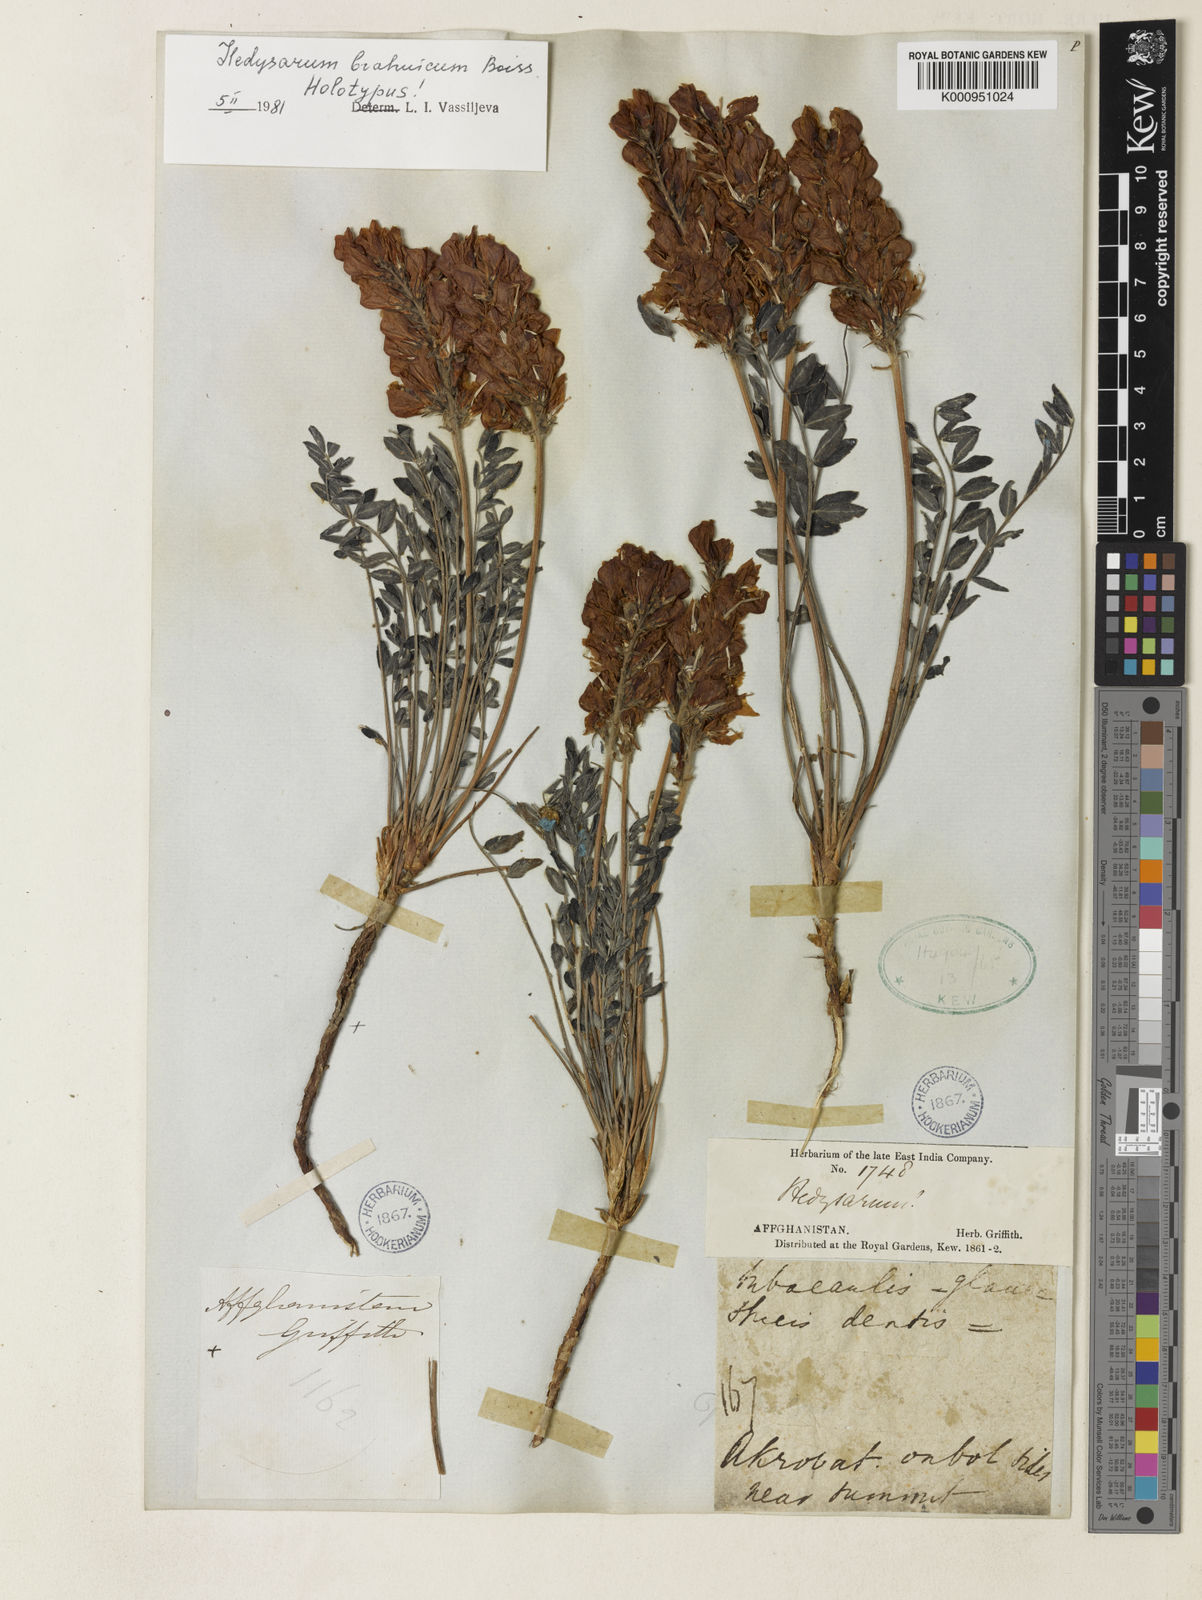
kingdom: Plantae
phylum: Tracheophyta
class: Magnoliopsida
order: Fabales
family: Fabaceae
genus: Hedysarum
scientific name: Hedysarum brahuicum
